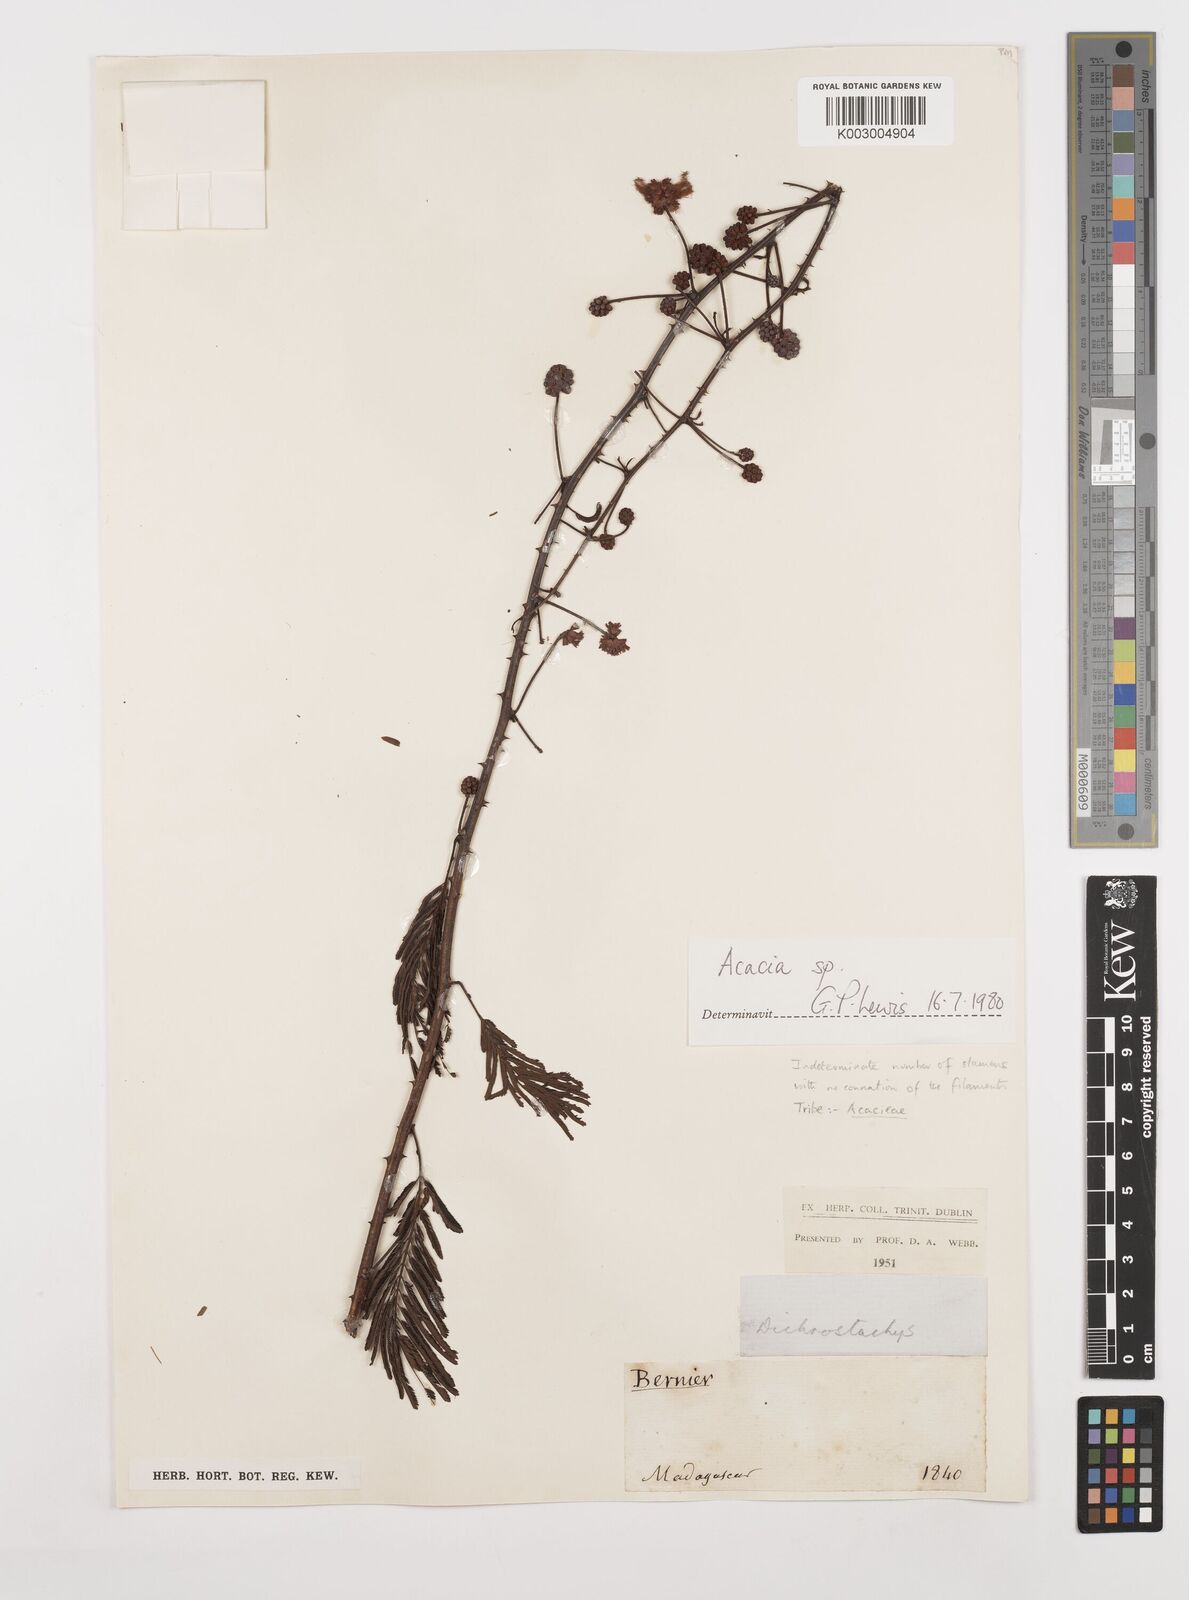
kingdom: Plantae
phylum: Tracheophyta
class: Magnoliopsida
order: Fabales
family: Fabaceae
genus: Senegalia
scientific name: Senegalia sakalava
